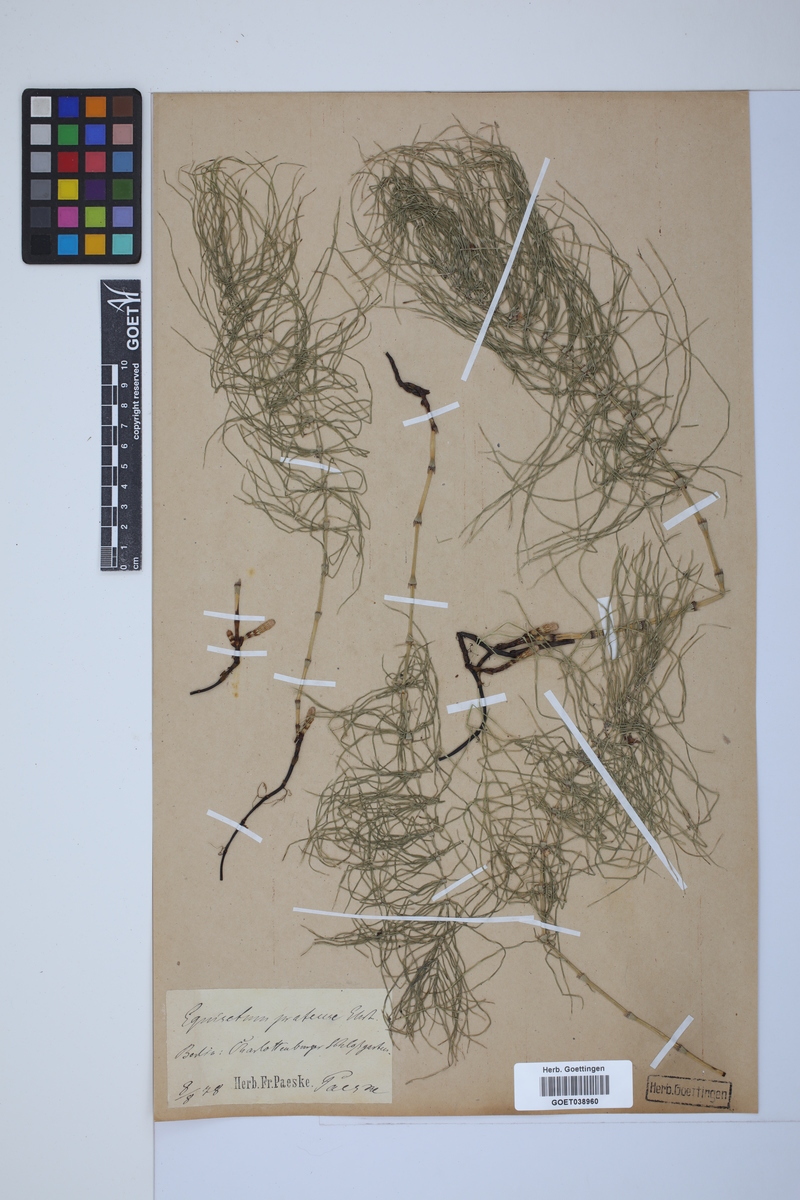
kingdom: Plantae
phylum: Tracheophyta
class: Polypodiopsida
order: Equisetales
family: Equisetaceae
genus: Equisetum
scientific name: Equisetum pratense
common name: Meadow horsetail
